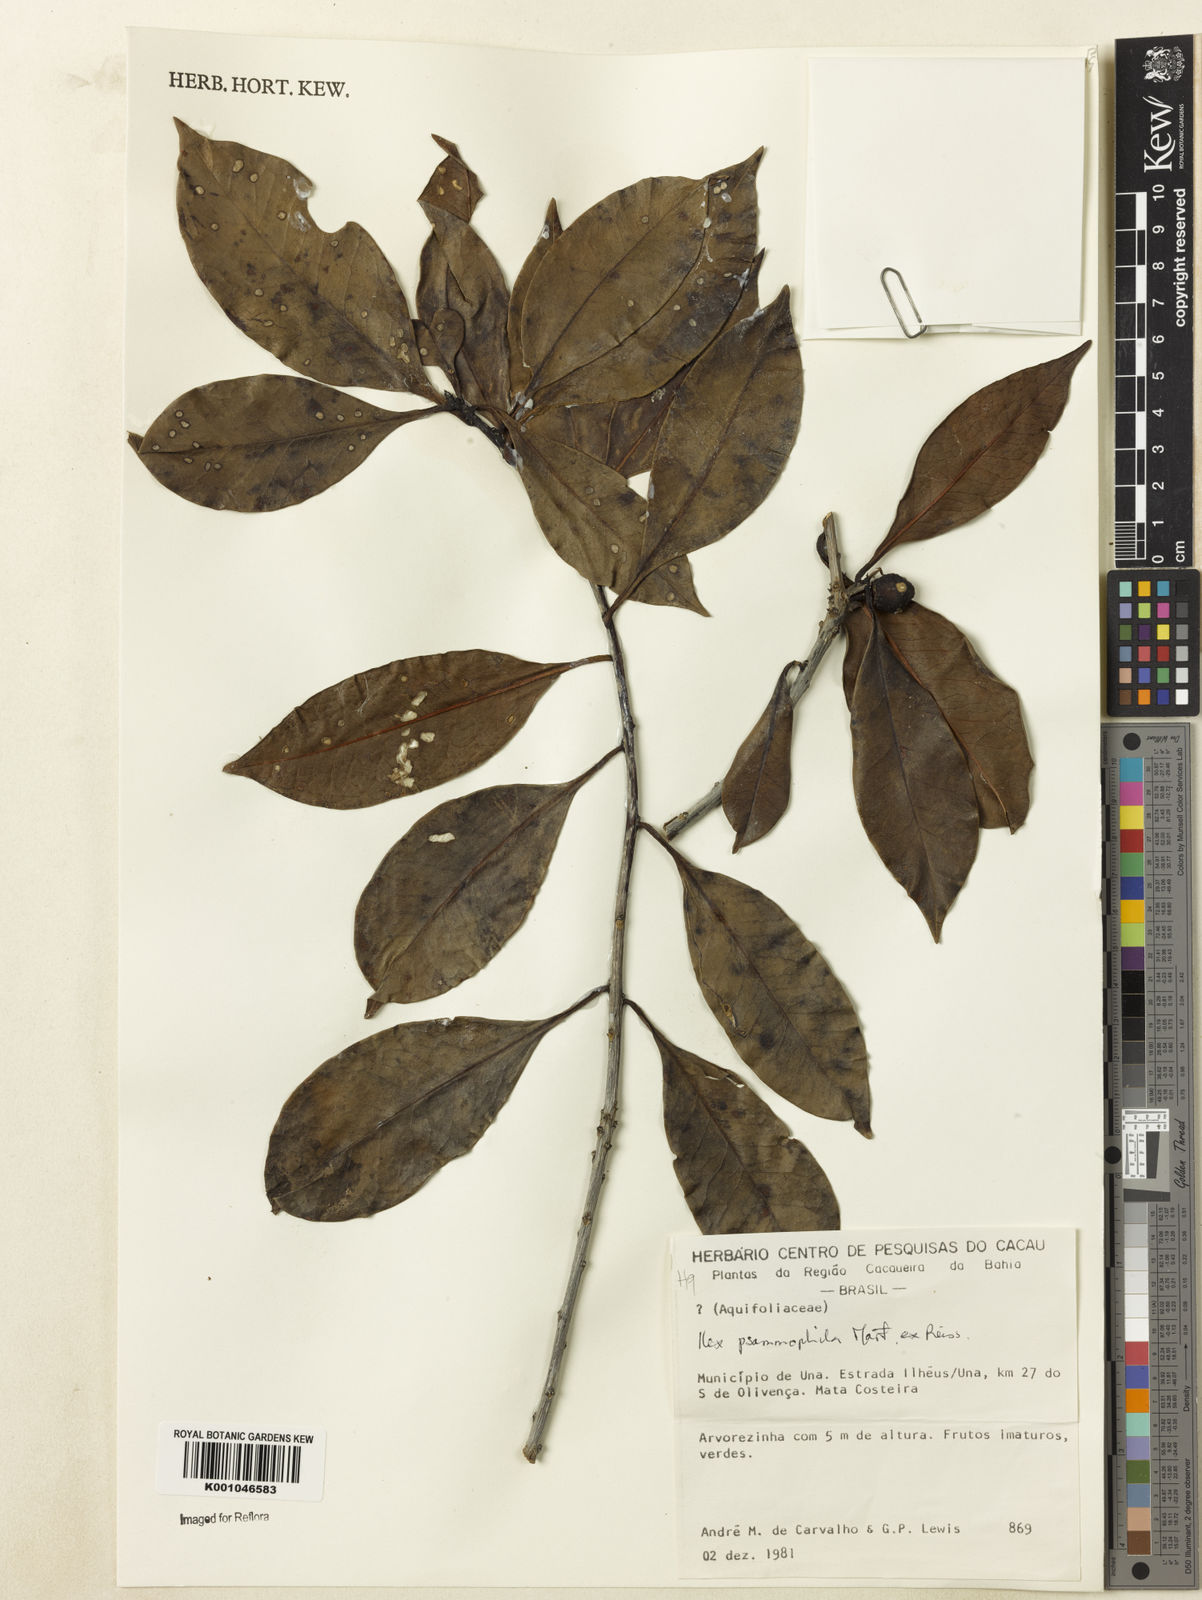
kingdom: Plantae
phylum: Tracheophyta
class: Magnoliopsida
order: Aquifoliales
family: Aquifoliaceae
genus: Ilex
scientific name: Ilex psammophila
